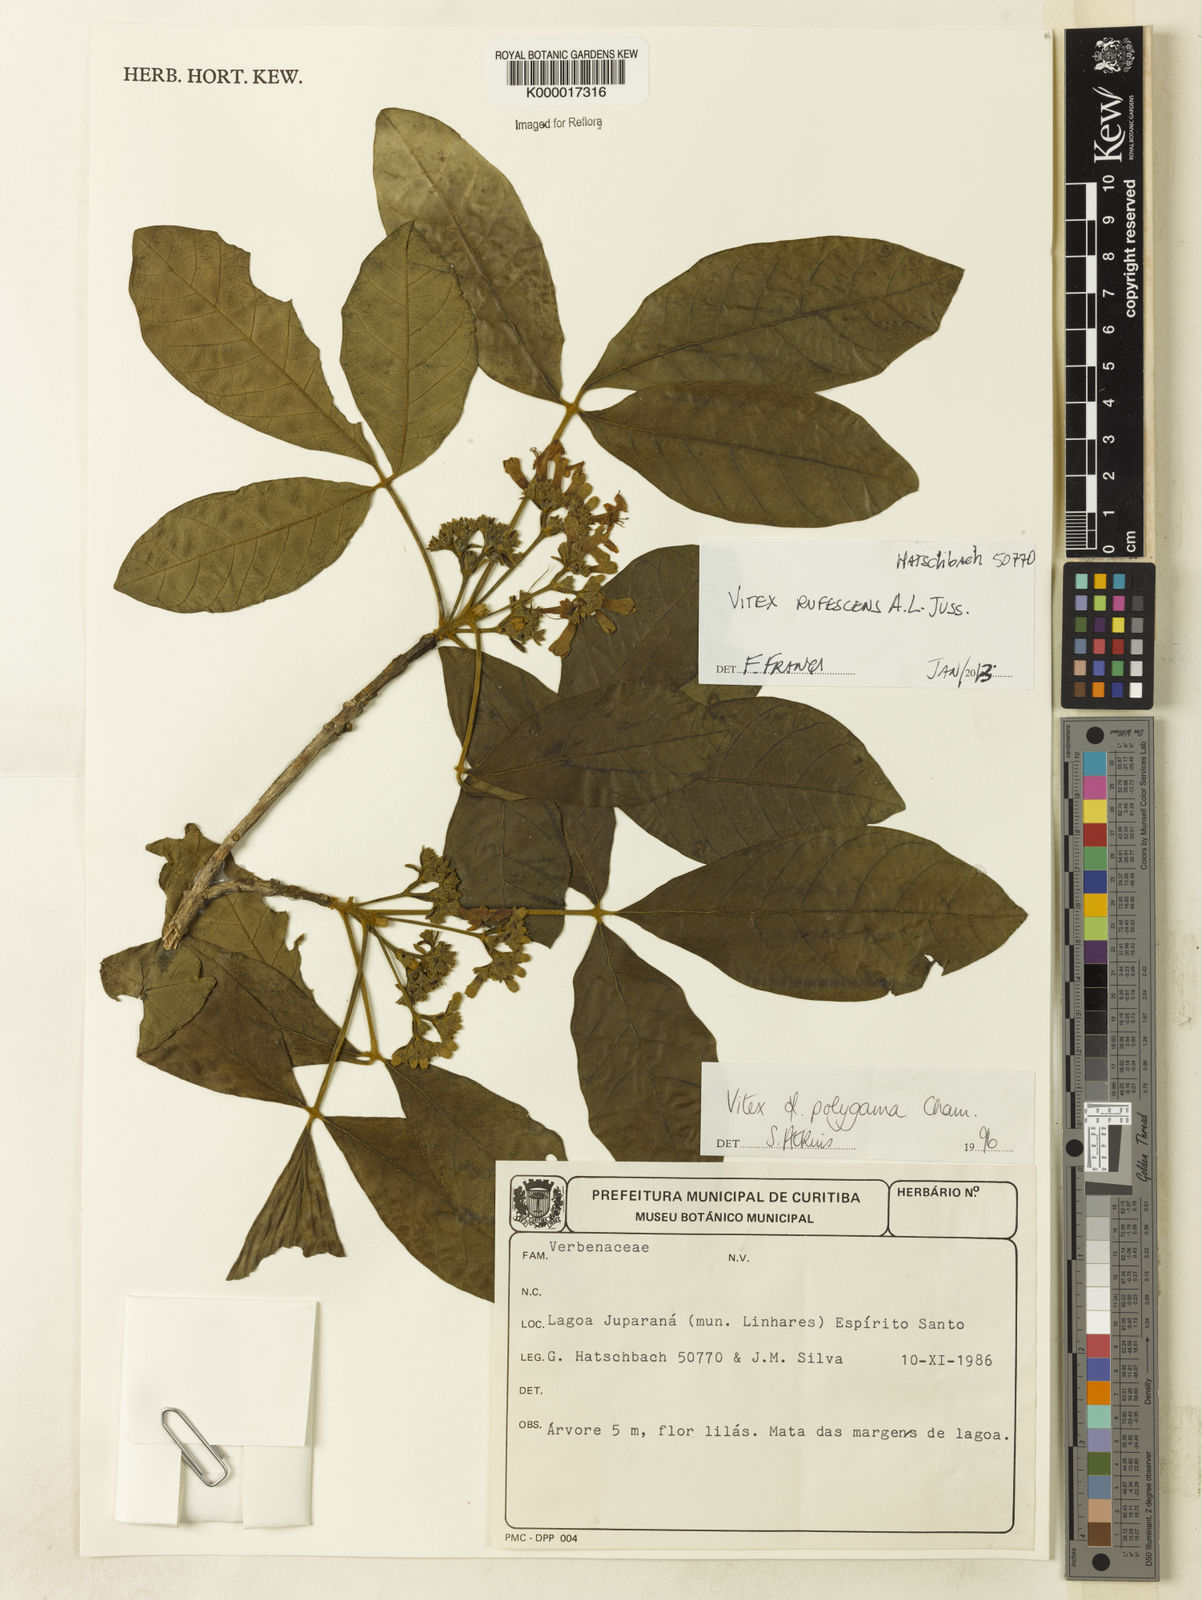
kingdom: Plantae
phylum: Tracheophyta
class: Magnoliopsida
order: Lamiales
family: Lamiaceae
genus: Vitex
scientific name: Vitex rufescens
